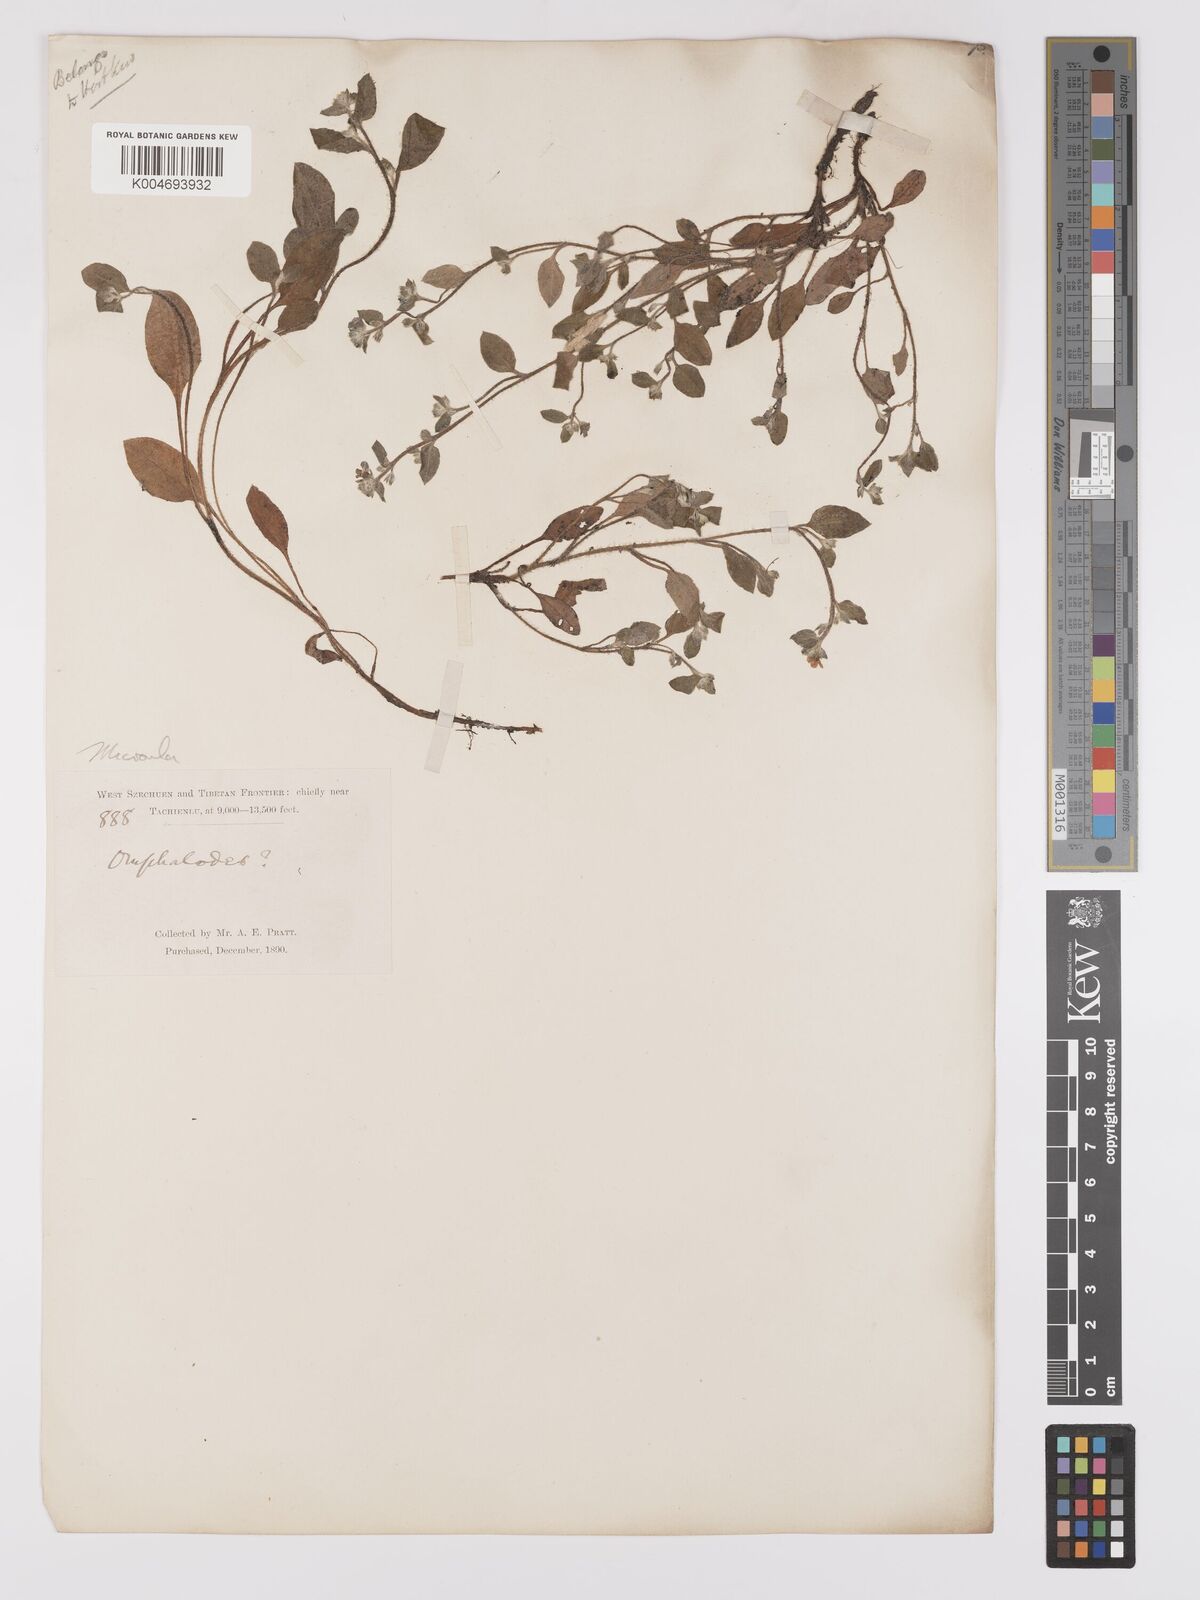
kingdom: Plantae
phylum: Tracheophyta
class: Magnoliopsida
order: Boraginales
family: Boraginaceae
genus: Microula
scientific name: Microula
